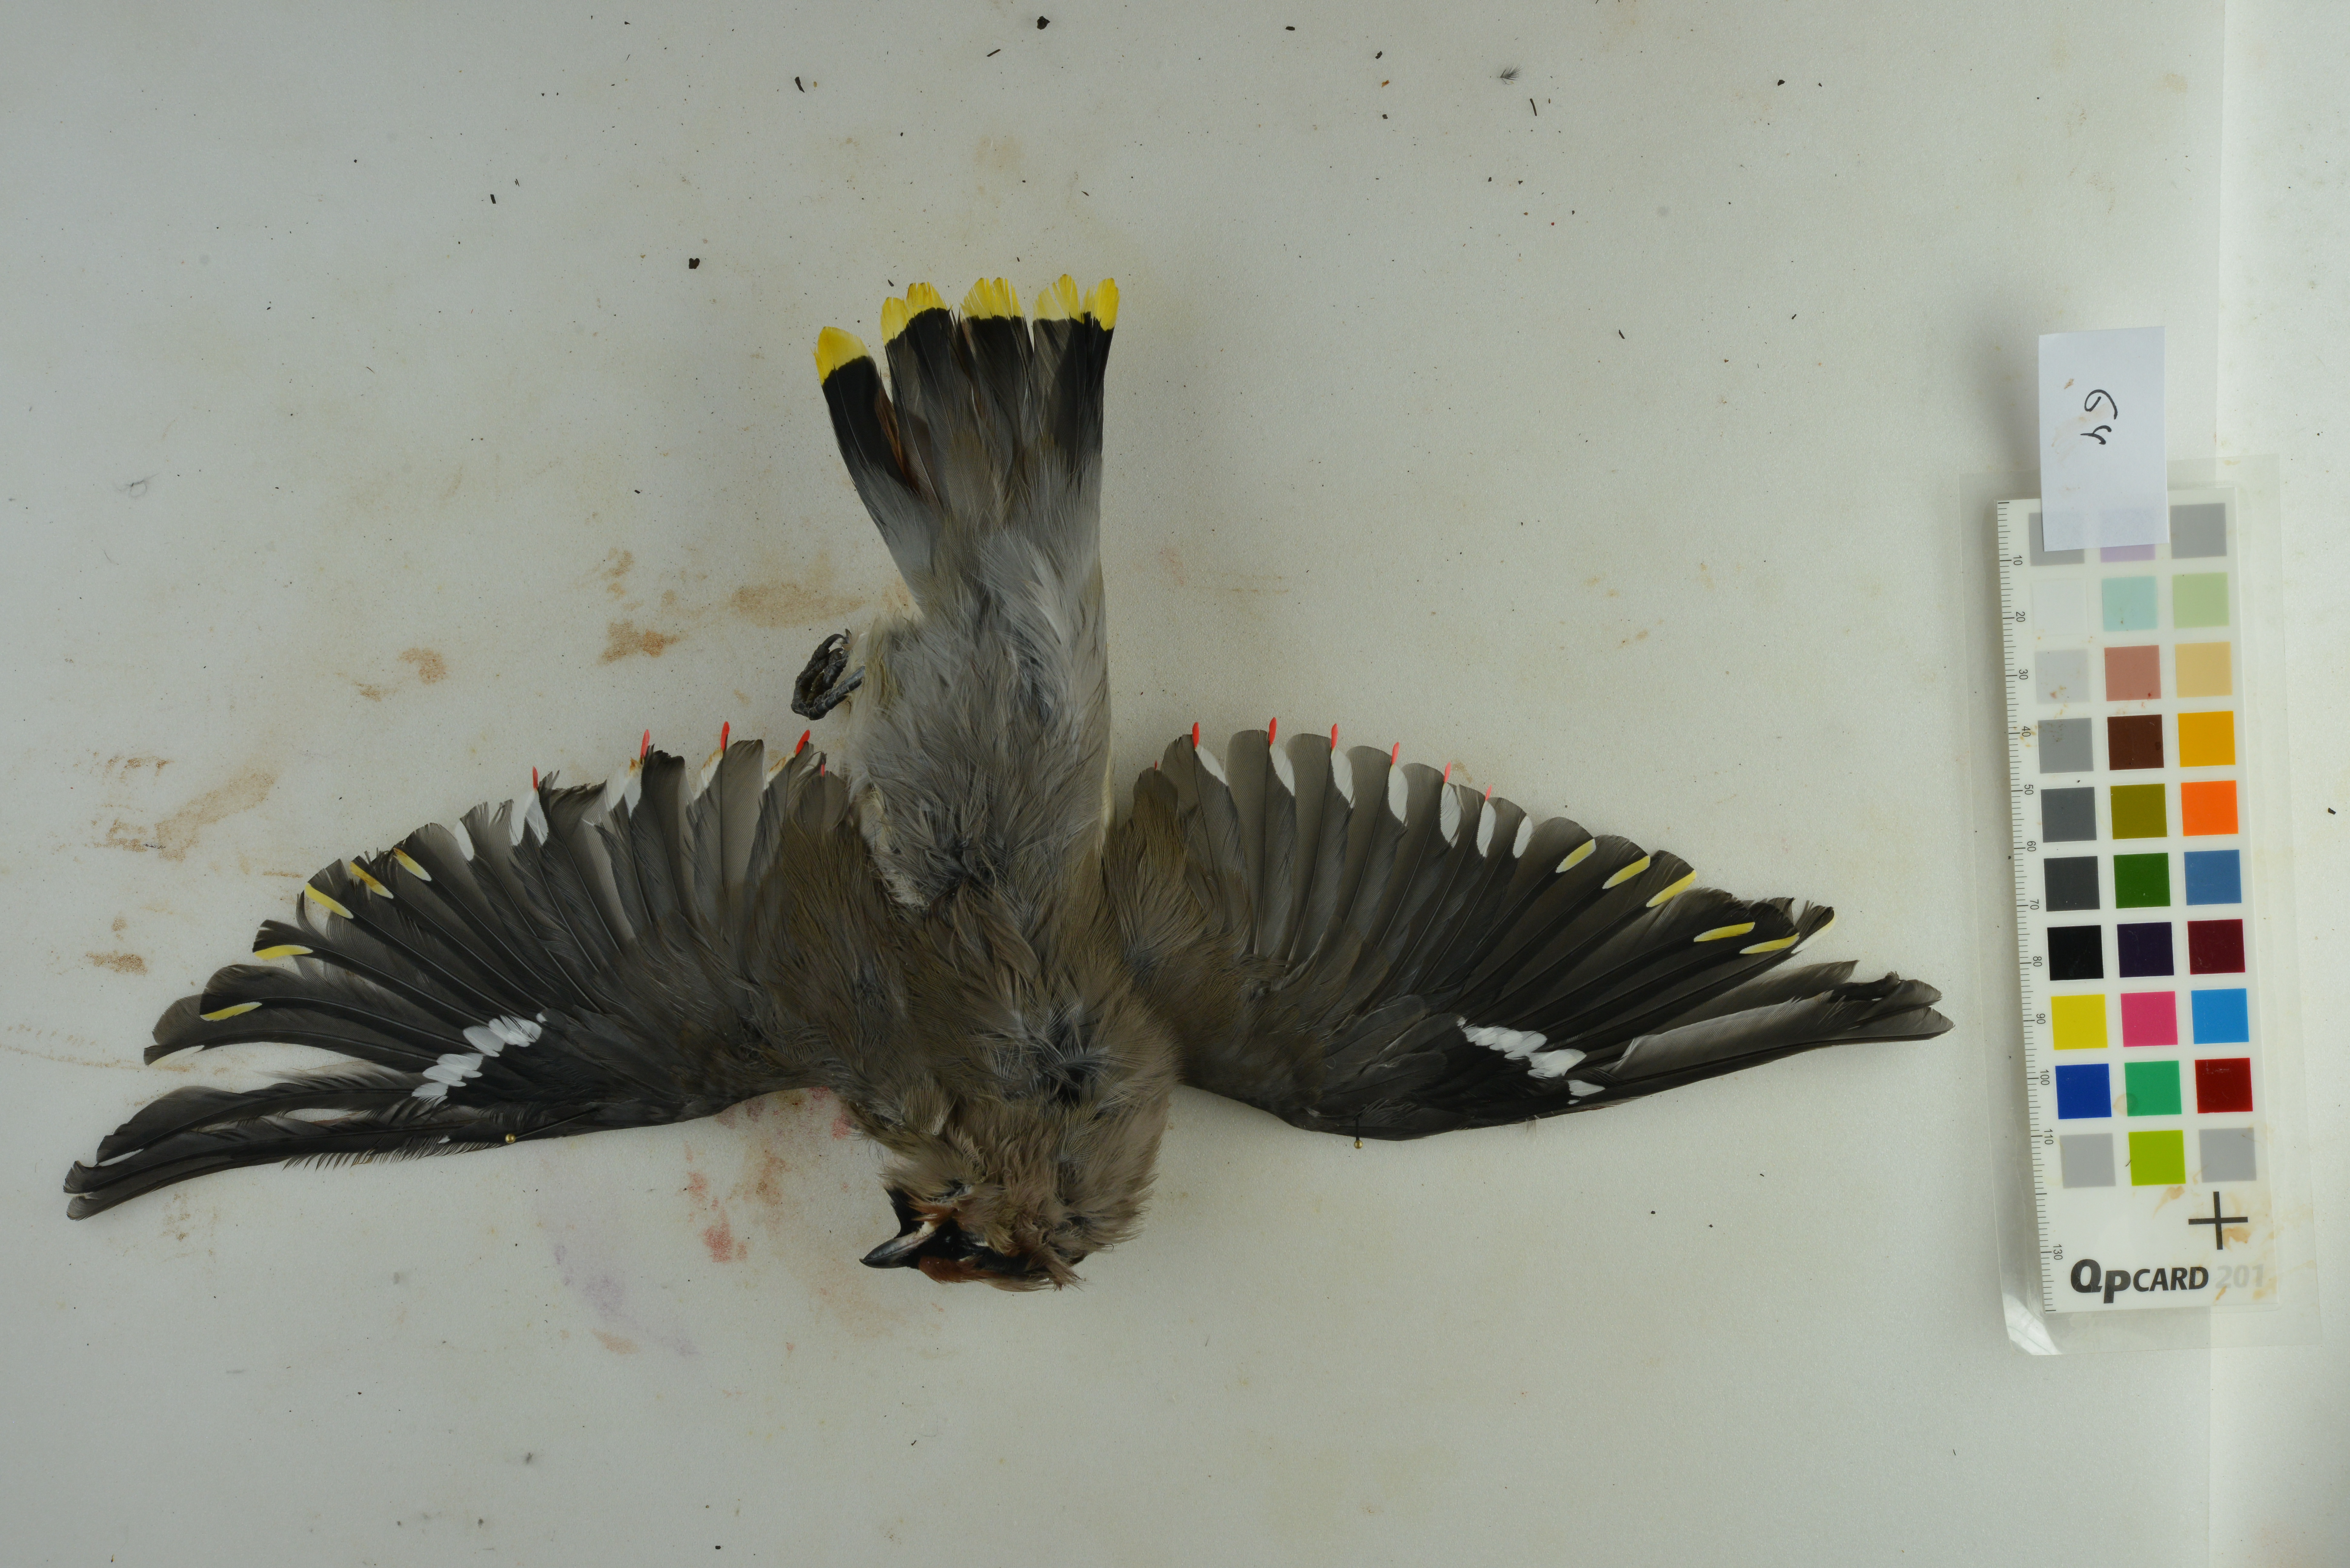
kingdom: Animalia
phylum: Chordata
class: Aves
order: Passeriformes
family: Bombycillidae
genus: Bombycilla
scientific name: Bombycilla garrulus
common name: Bohemian waxwing
